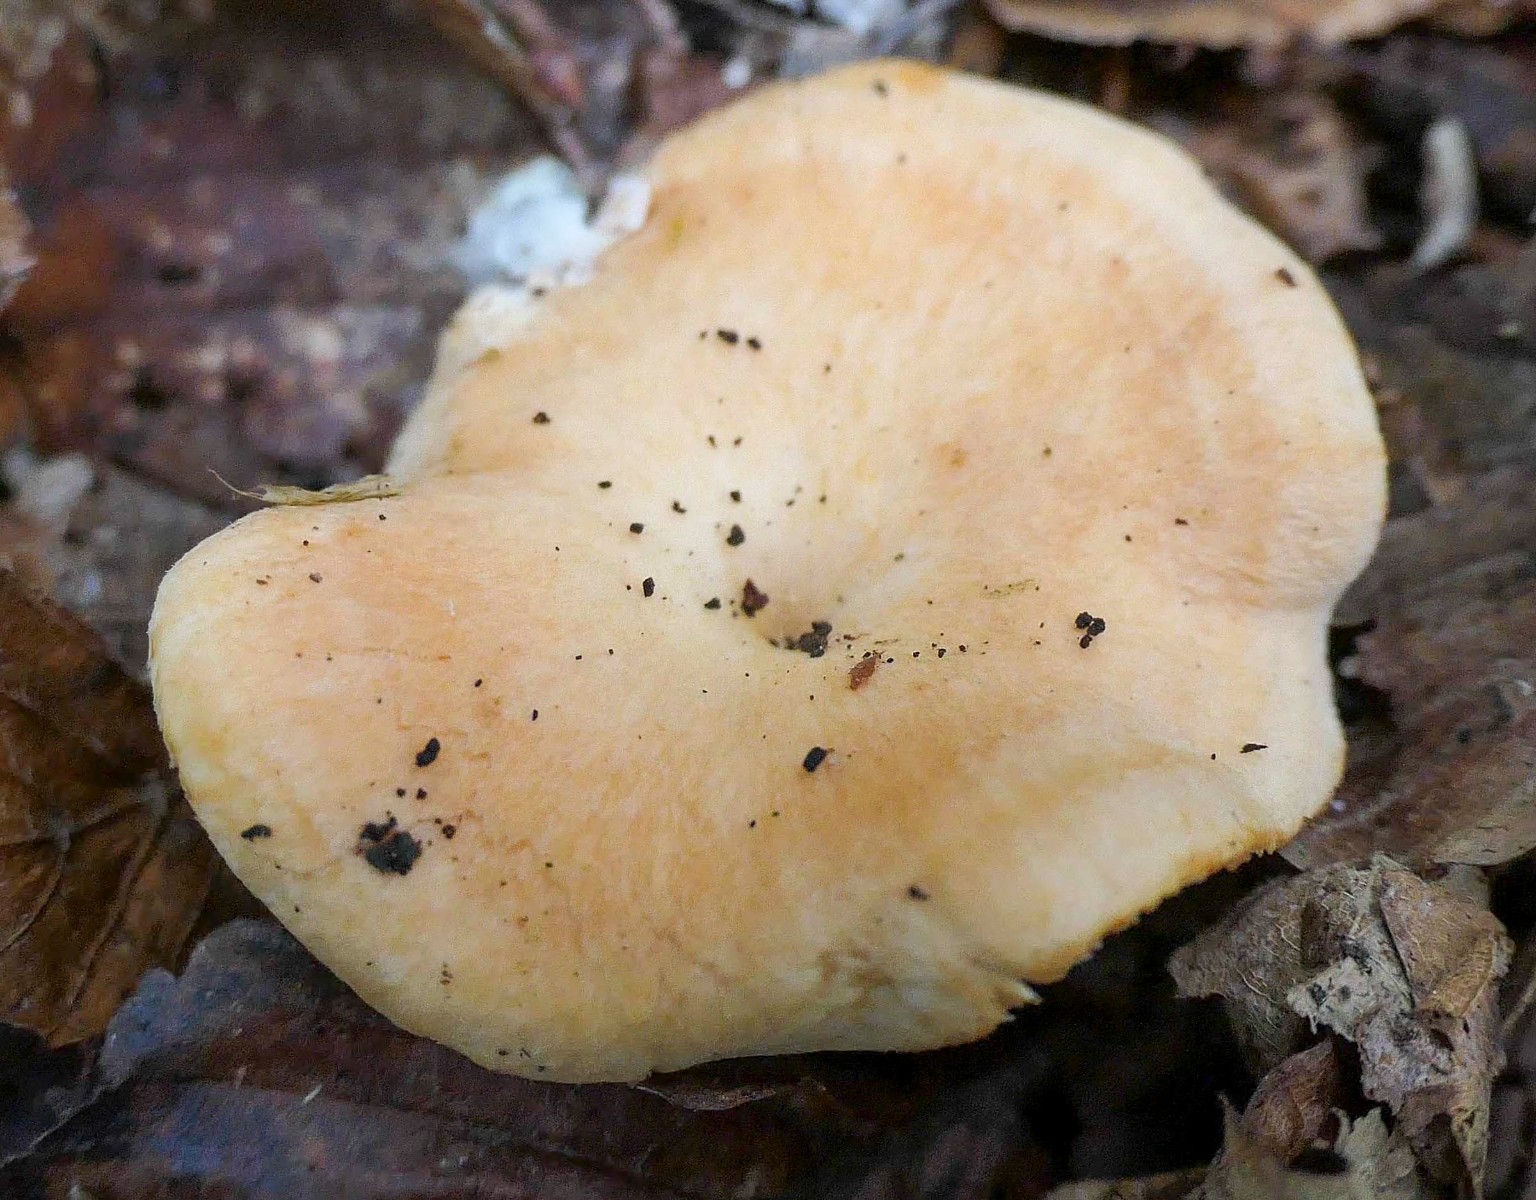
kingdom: Fungi
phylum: Basidiomycota
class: Agaricomycetes
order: Cantharellales
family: Hydnaceae
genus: Hydnum
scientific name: Hydnum umbilicatum
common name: navle-pigsvamp
